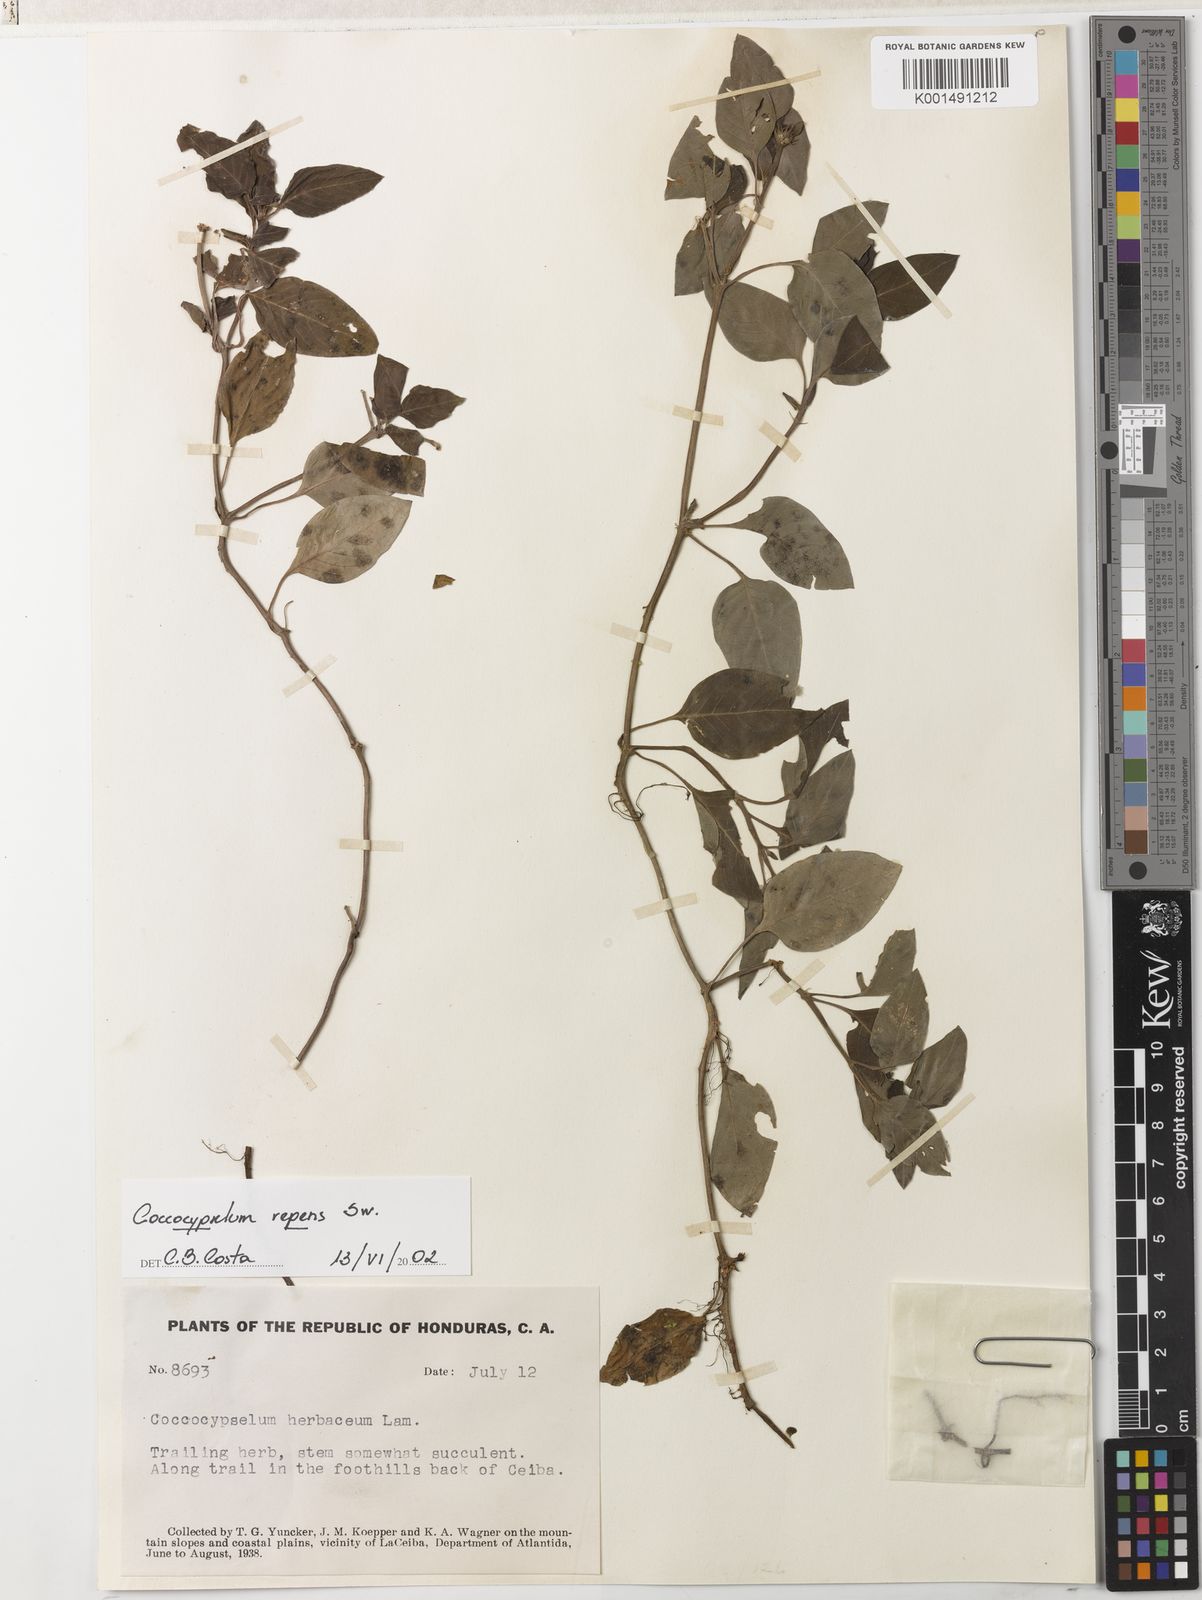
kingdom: Plantae
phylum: Tracheophyta
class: Magnoliopsida
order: Gentianales
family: Rubiaceae
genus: Coccocypselum
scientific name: Coccocypselum herbaceum
